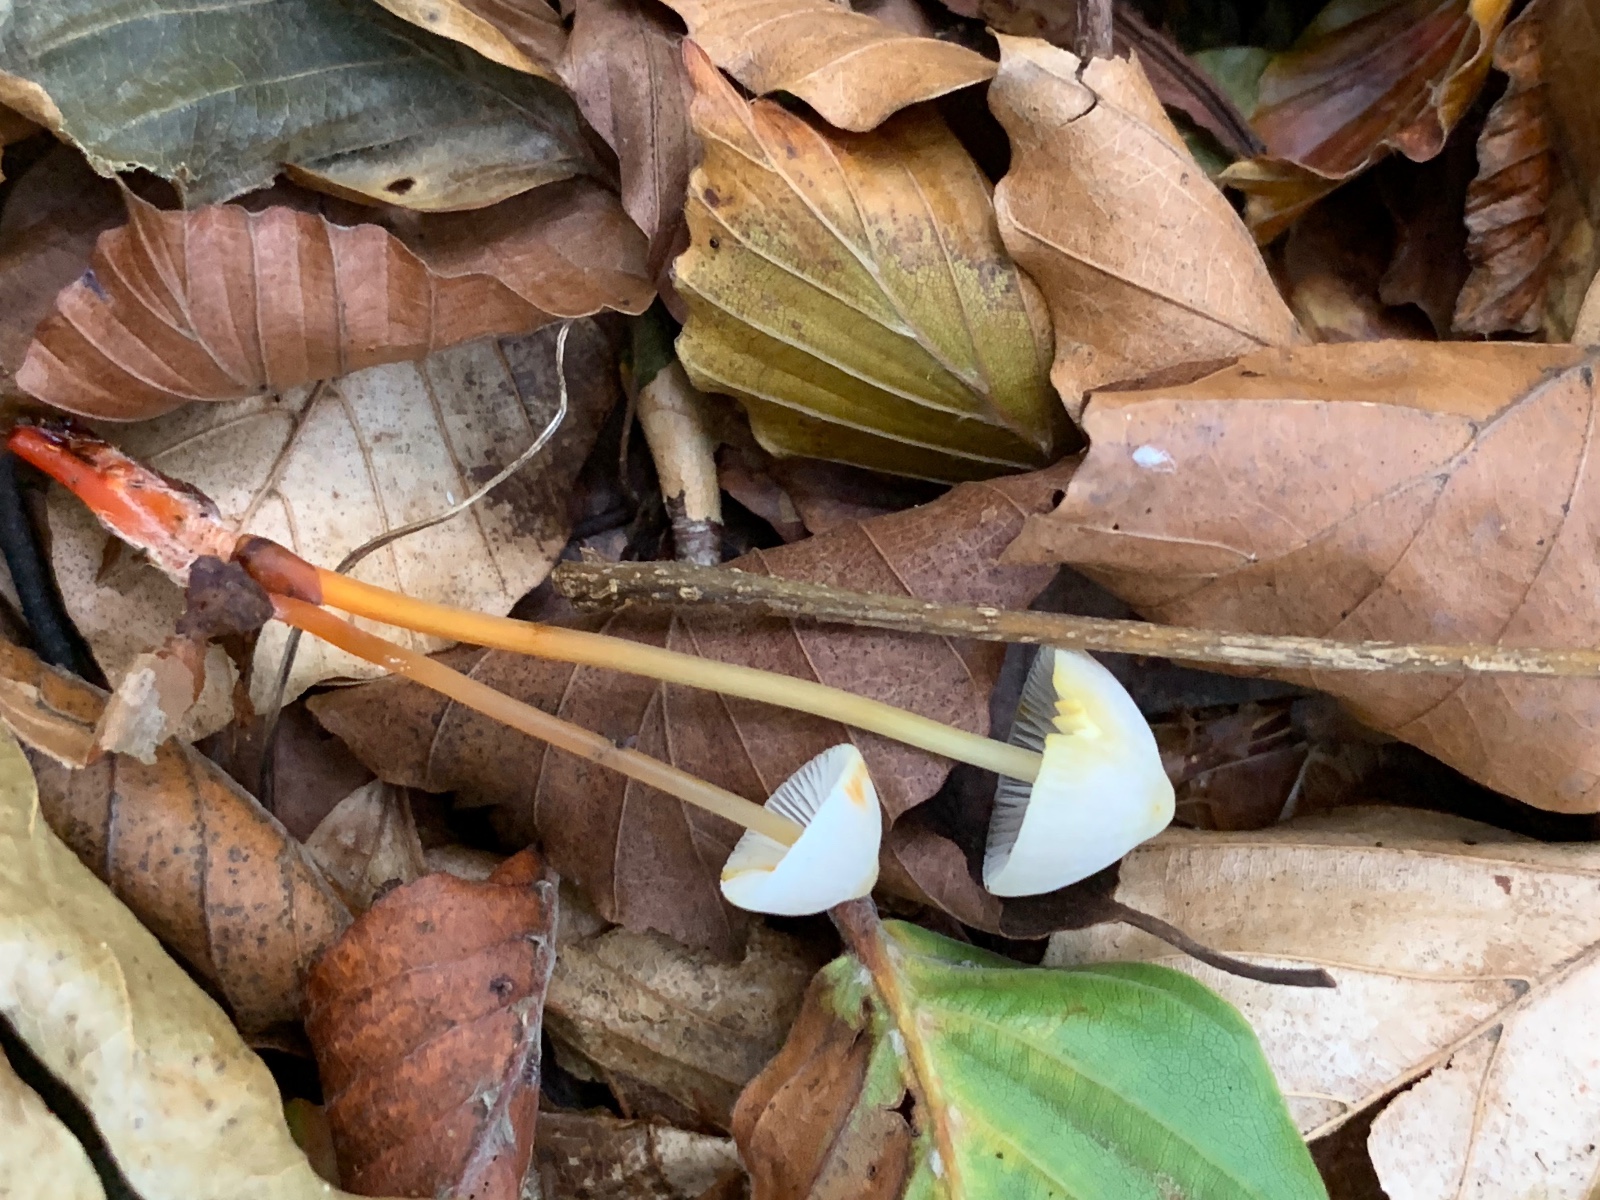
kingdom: Fungi
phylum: Basidiomycota
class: Agaricomycetes
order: Agaricales
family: Mycenaceae
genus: Mycena
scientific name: Mycena crocata
